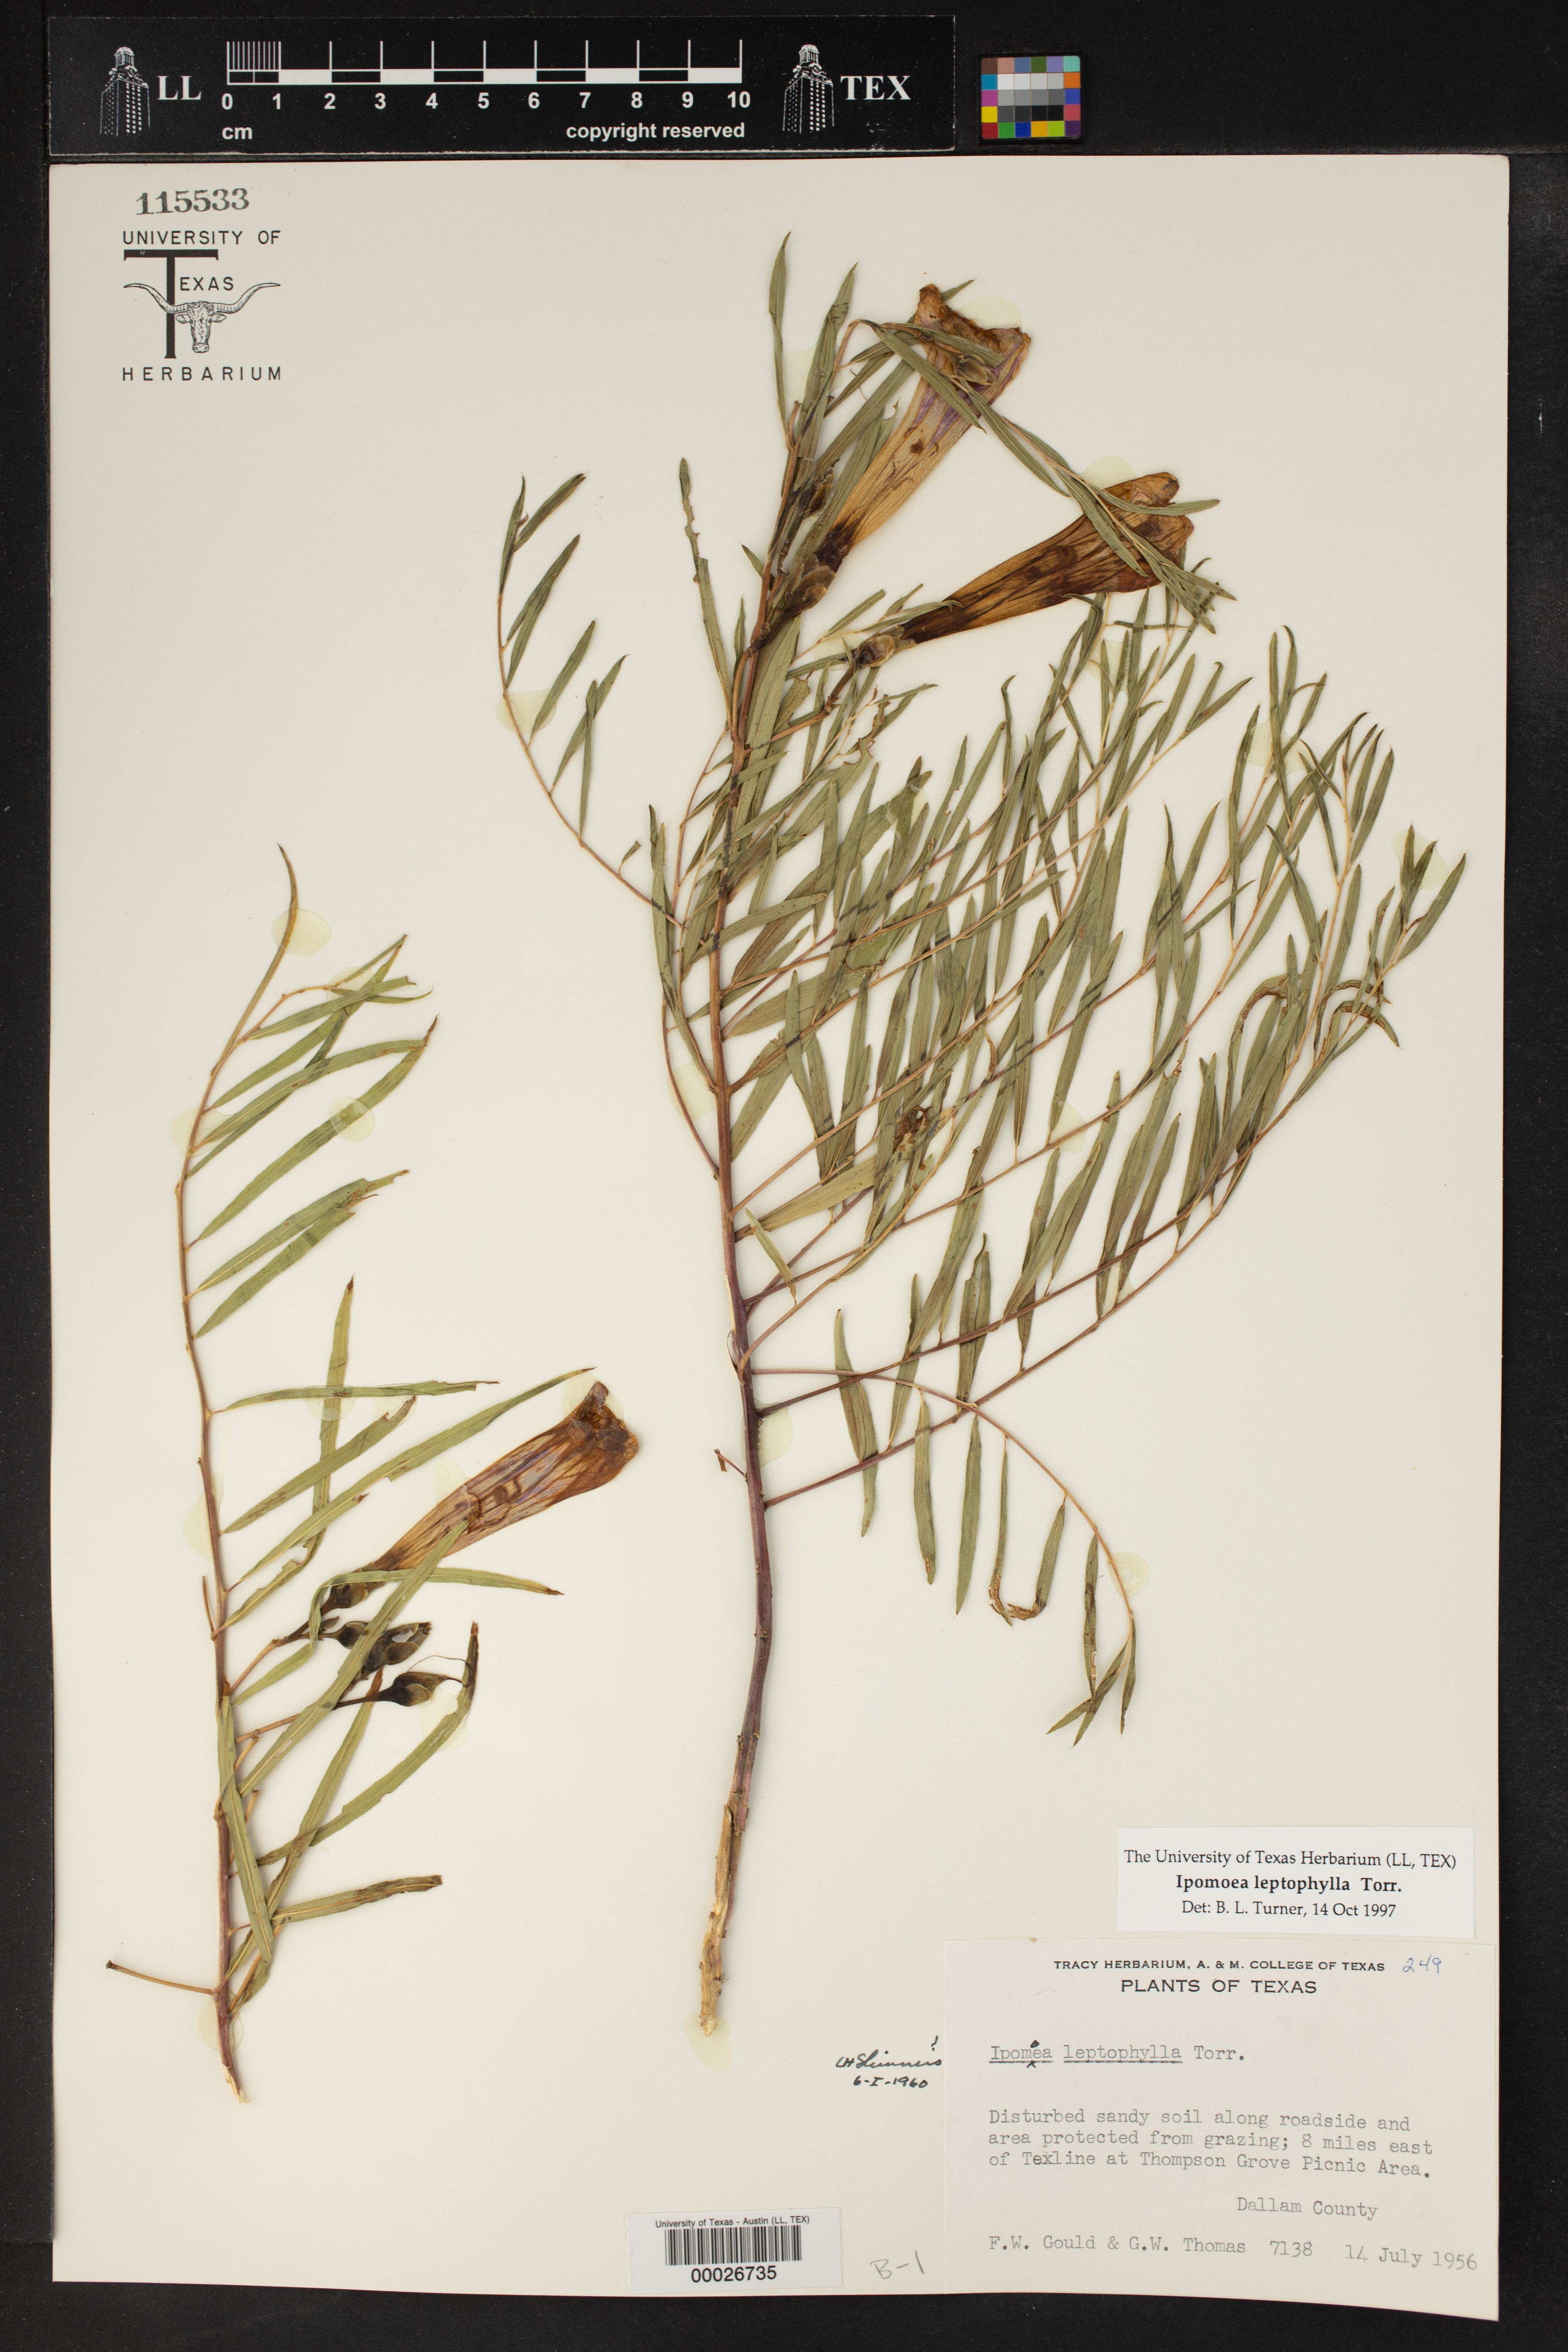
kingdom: Plantae
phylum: Tracheophyta
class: Magnoliopsida
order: Solanales
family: Convolvulaceae
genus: Ipomoea
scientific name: Ipomoea leptophylla
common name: Bush moonflower
